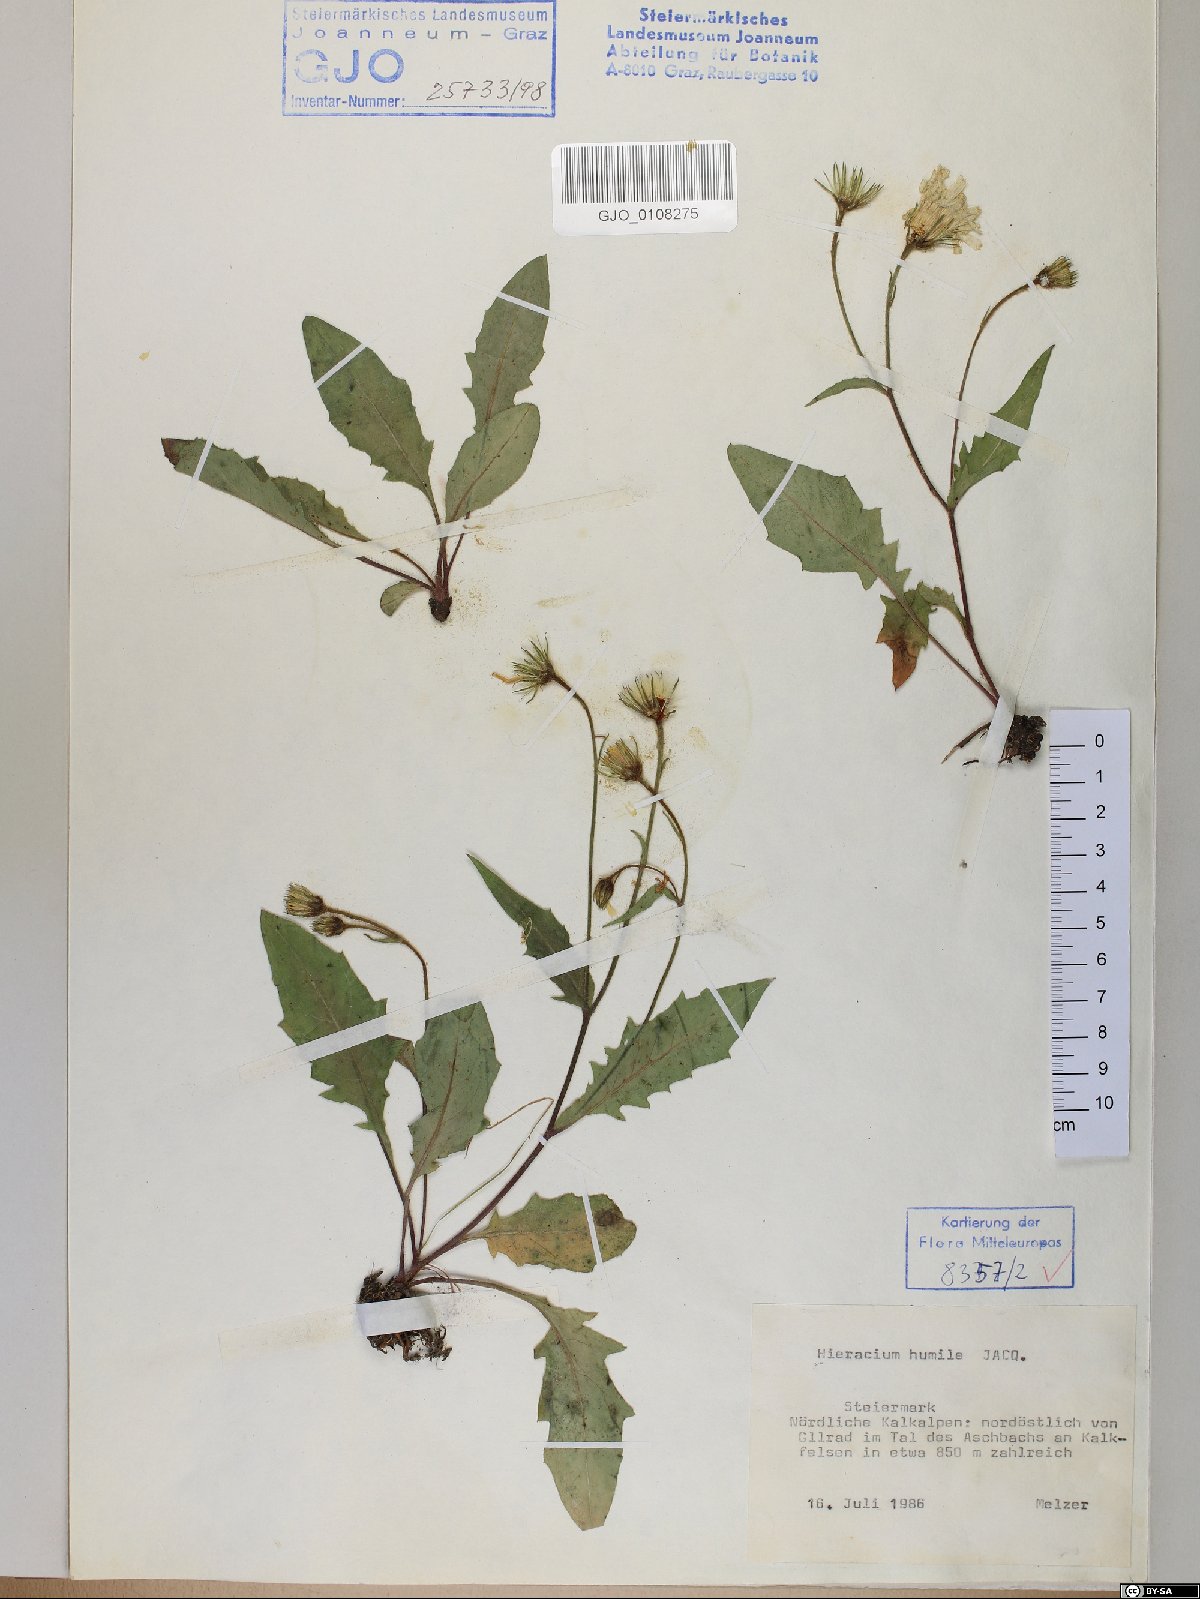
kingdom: Plantae
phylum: Tracheophyta
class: Magnoliopsida
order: Asterales
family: Asteraceae
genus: Hieracium
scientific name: Hieracium humile
